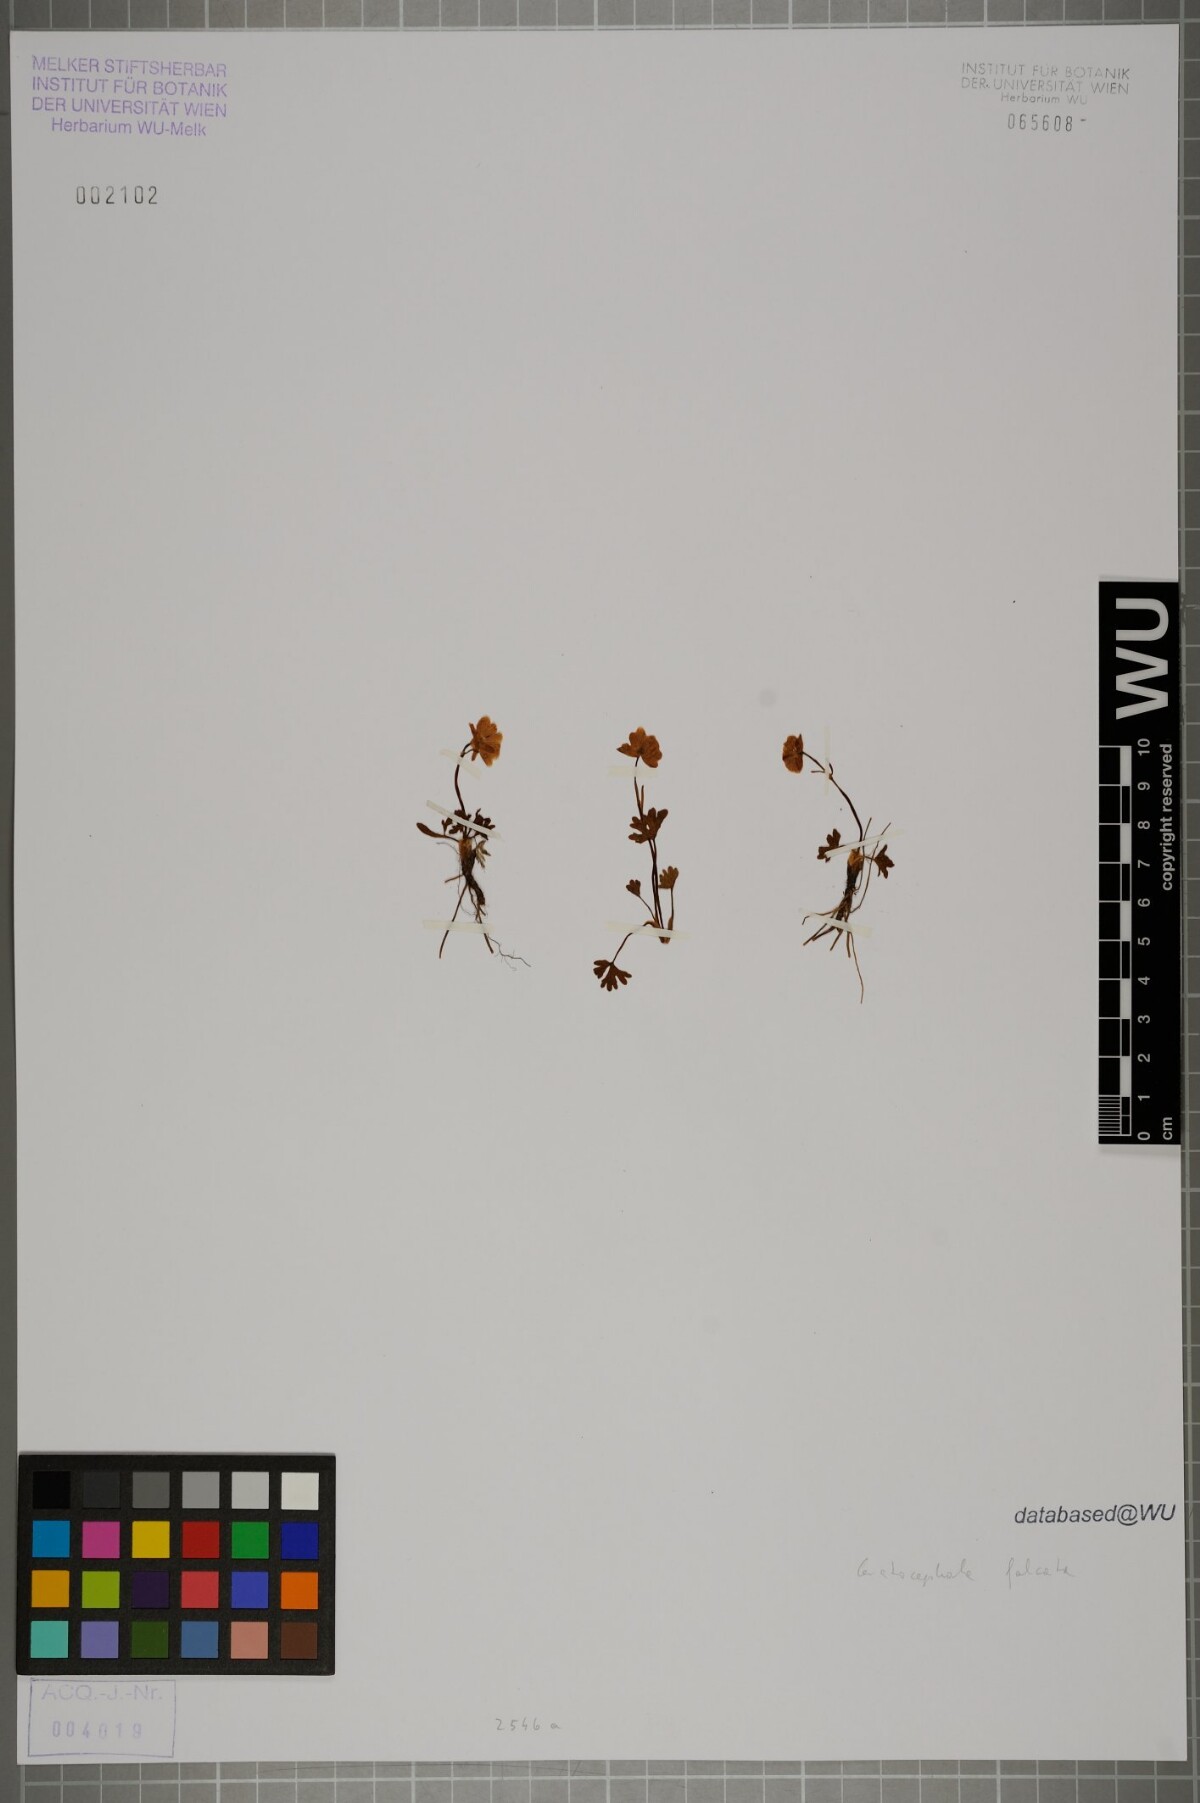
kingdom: Plantae
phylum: Tracheophyta
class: Magnoliopsida
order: Ranunculales
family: Ranunculaceae
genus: Ceratocephala
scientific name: Ceratocephala falcata
